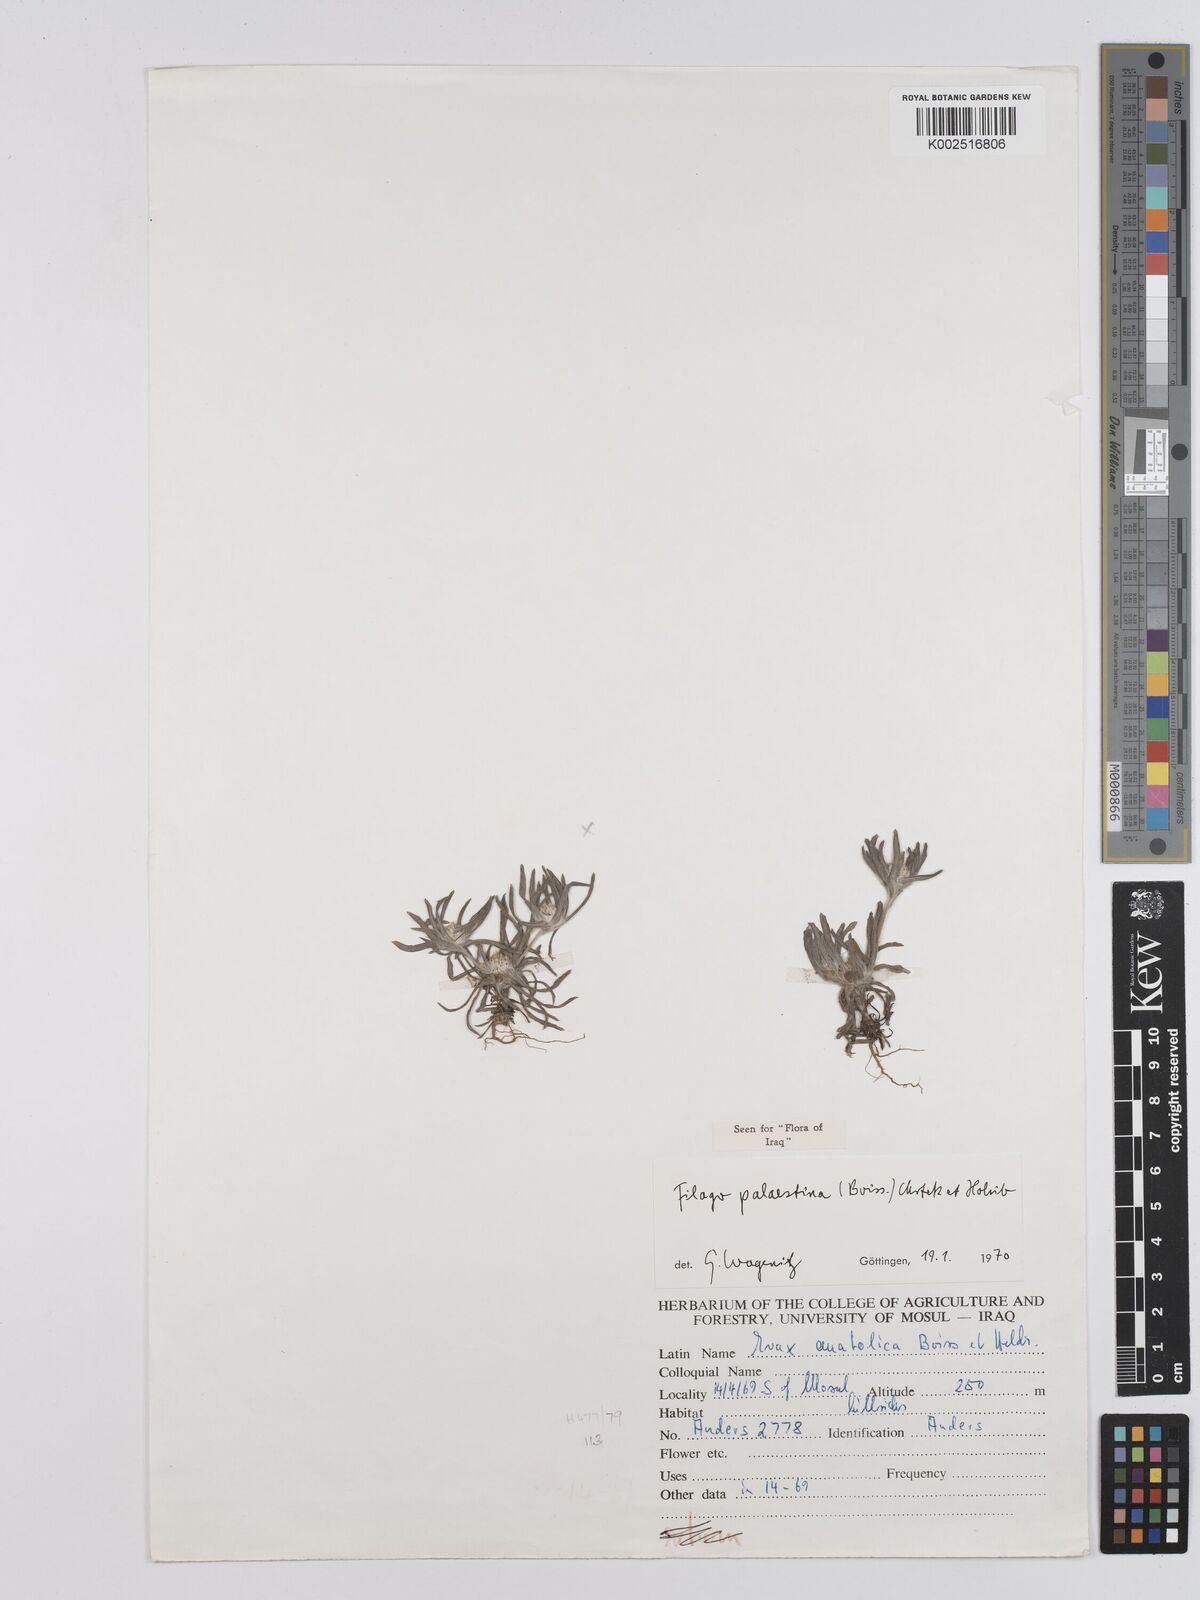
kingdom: Plantae
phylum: Tracheophyta
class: Magnoliopsida
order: Asterales
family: Asteraceae
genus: Filago
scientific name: Filago palaestina
